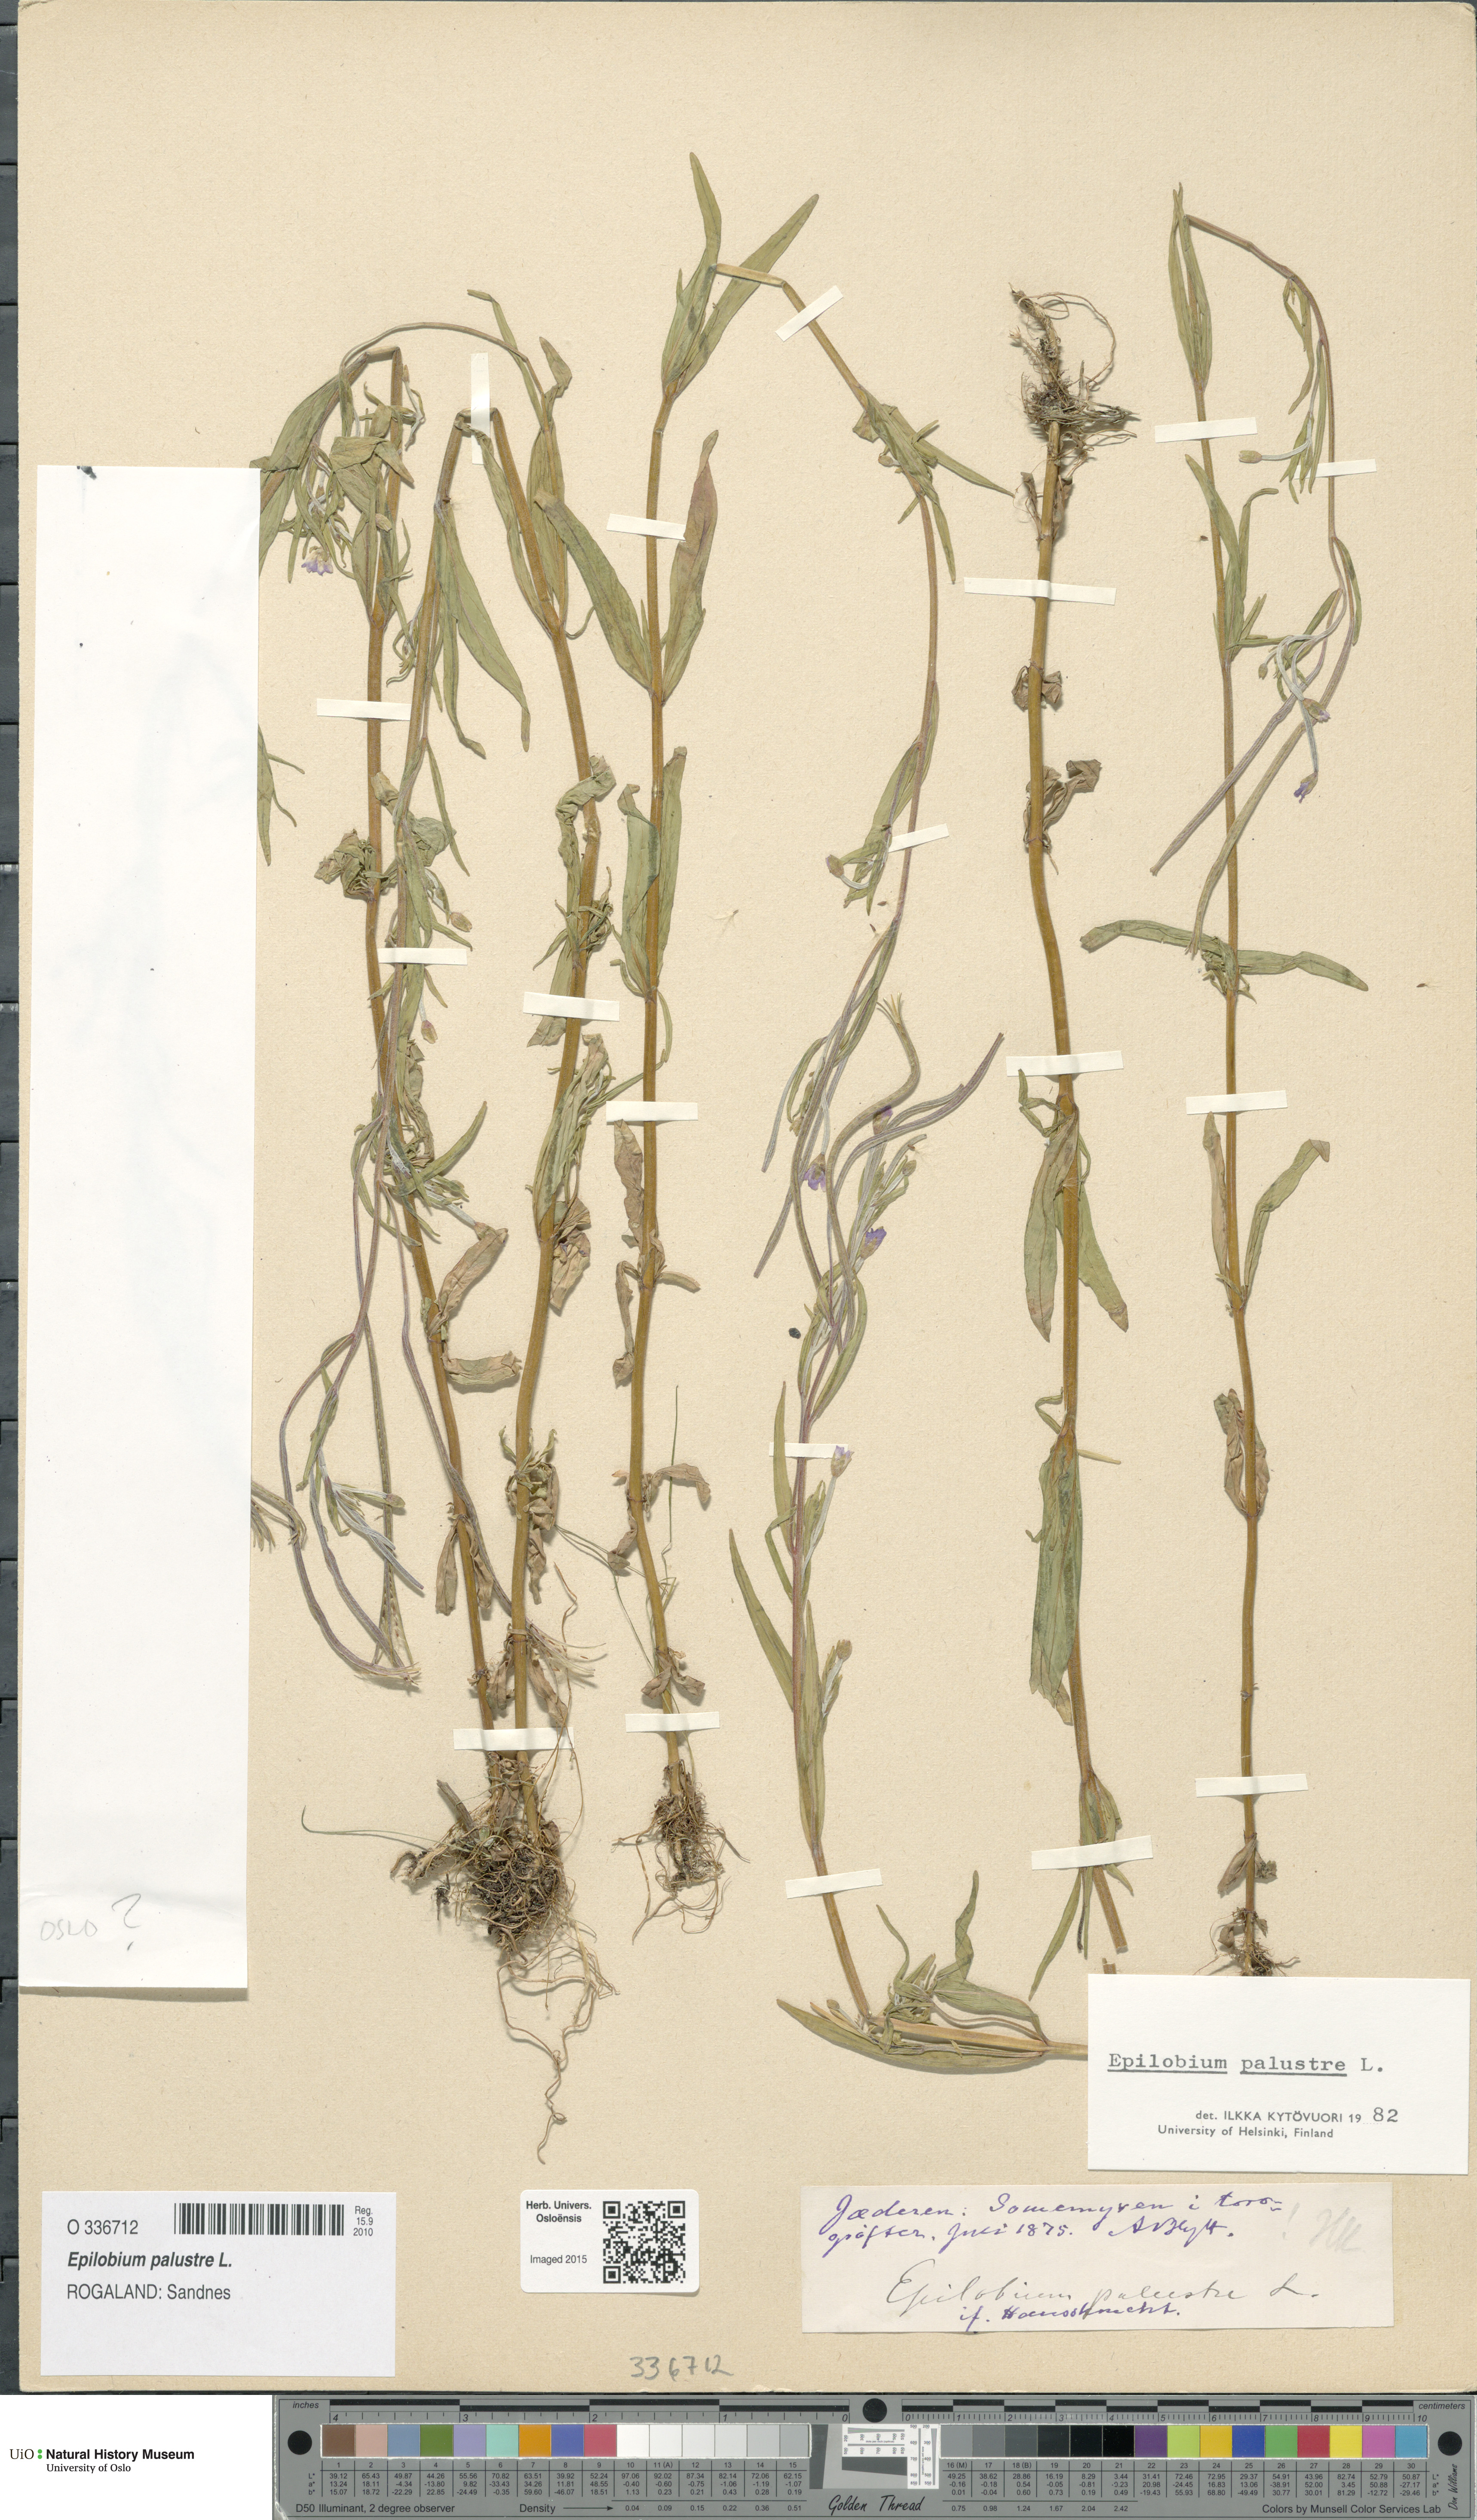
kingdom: Plantae
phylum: Tracheophyta
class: Magnoliopsida
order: Myrtales
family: Onagraceae
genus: Epilobium
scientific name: Epilobium palustre
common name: Marsh willowherb
